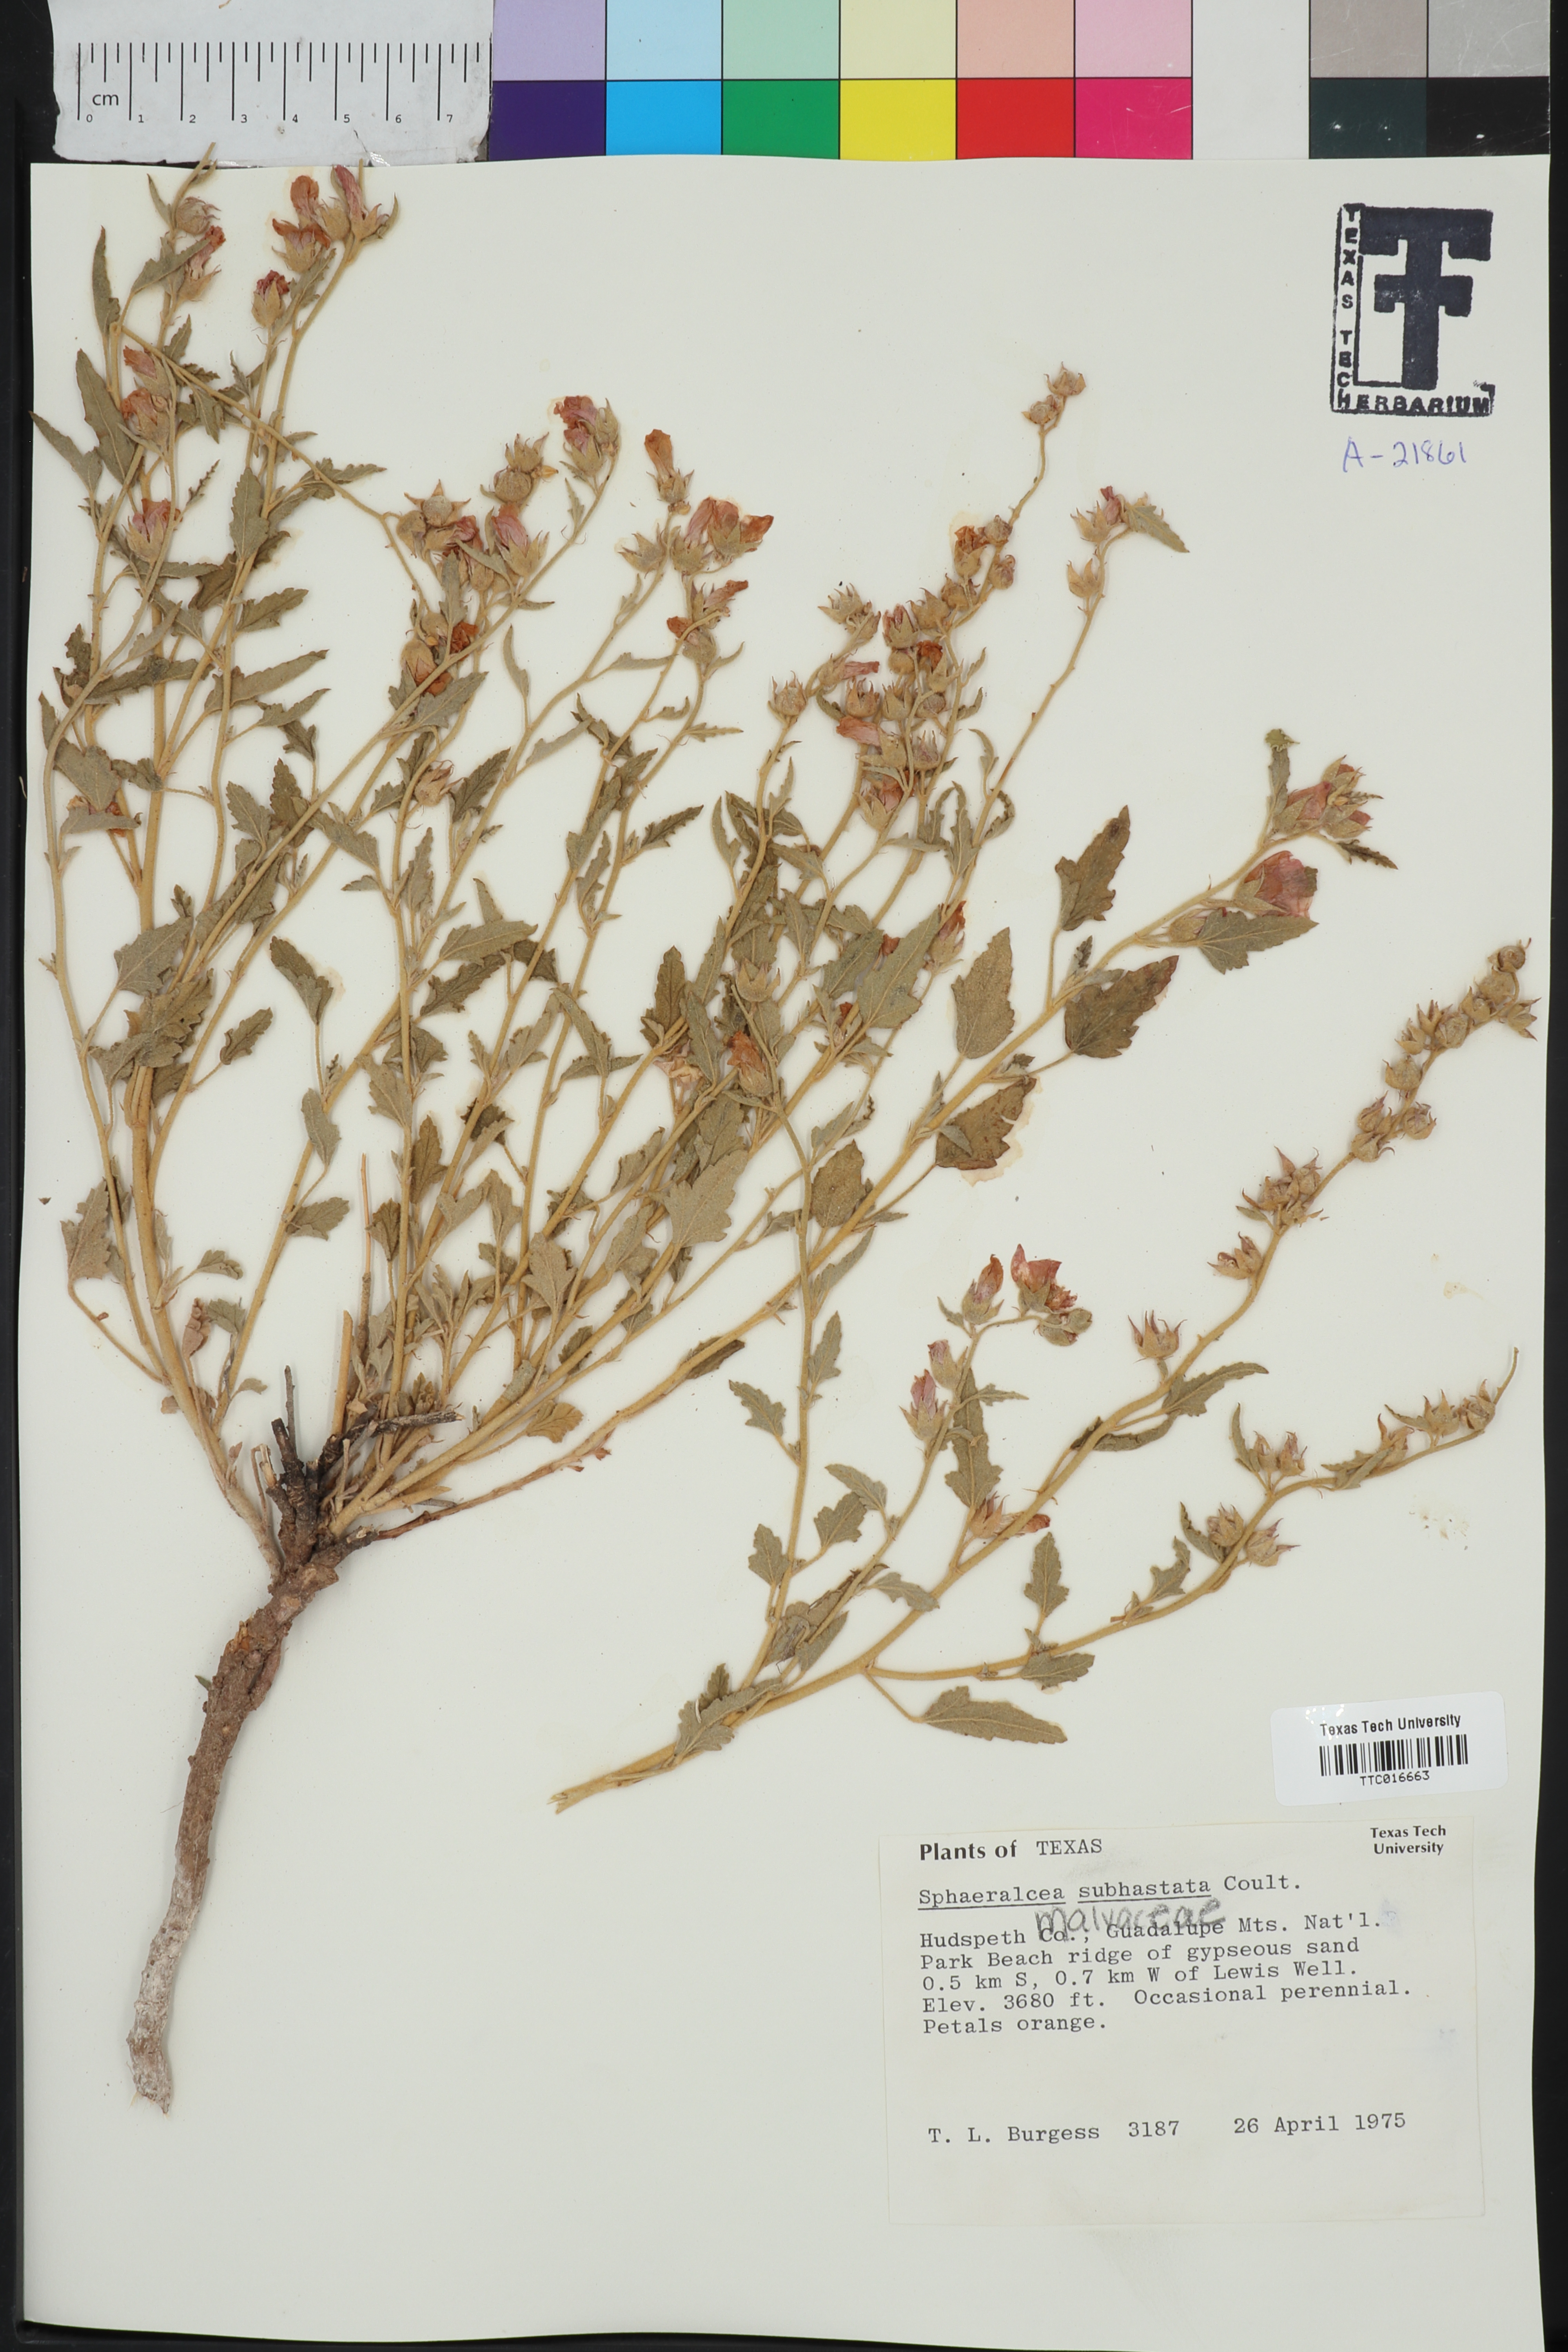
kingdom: Plantae
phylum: Tracheophyta
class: Magnoliopsida
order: Malvales
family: Malvaceae
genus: Sphaeralcea
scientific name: Sphaeralcea hastulata
